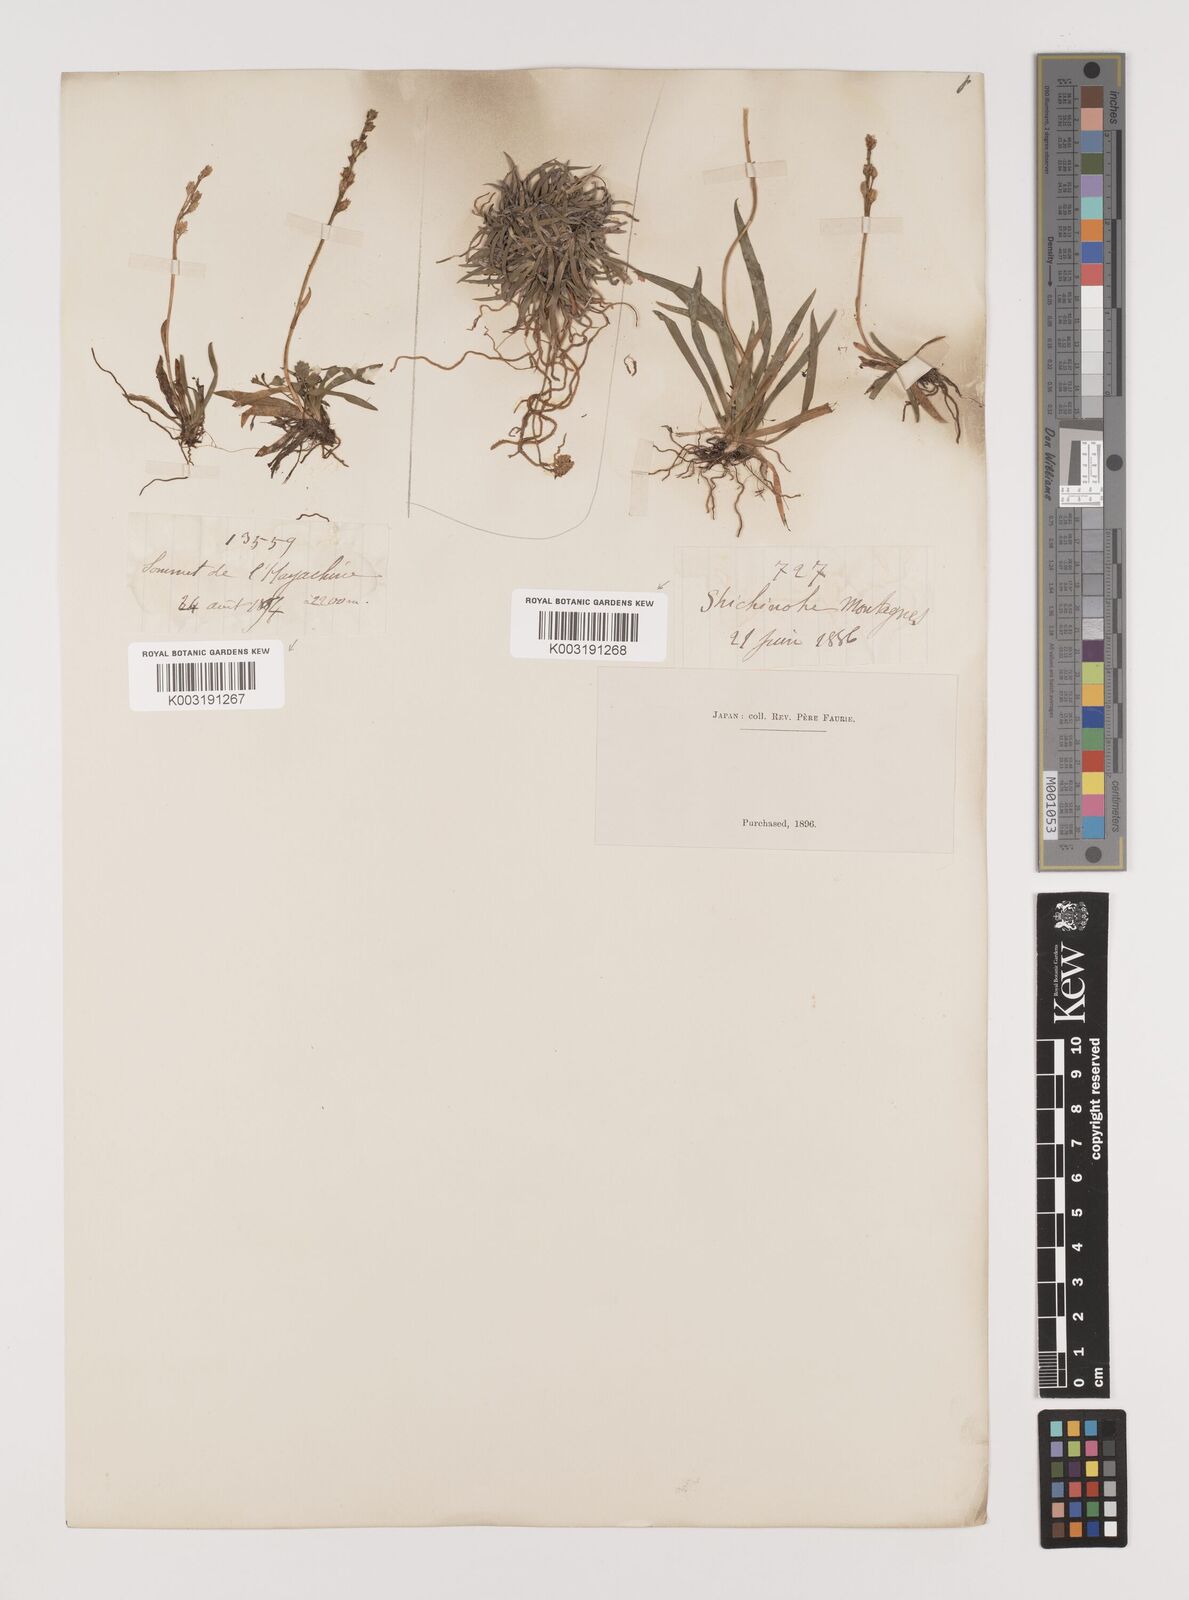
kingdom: Plantae
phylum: Tracheophyta
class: Liliopsida
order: Alismatales
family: Tofieldiaceae
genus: Tofieldia
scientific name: Tofieldia coccinea
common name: Northern false asphodel
